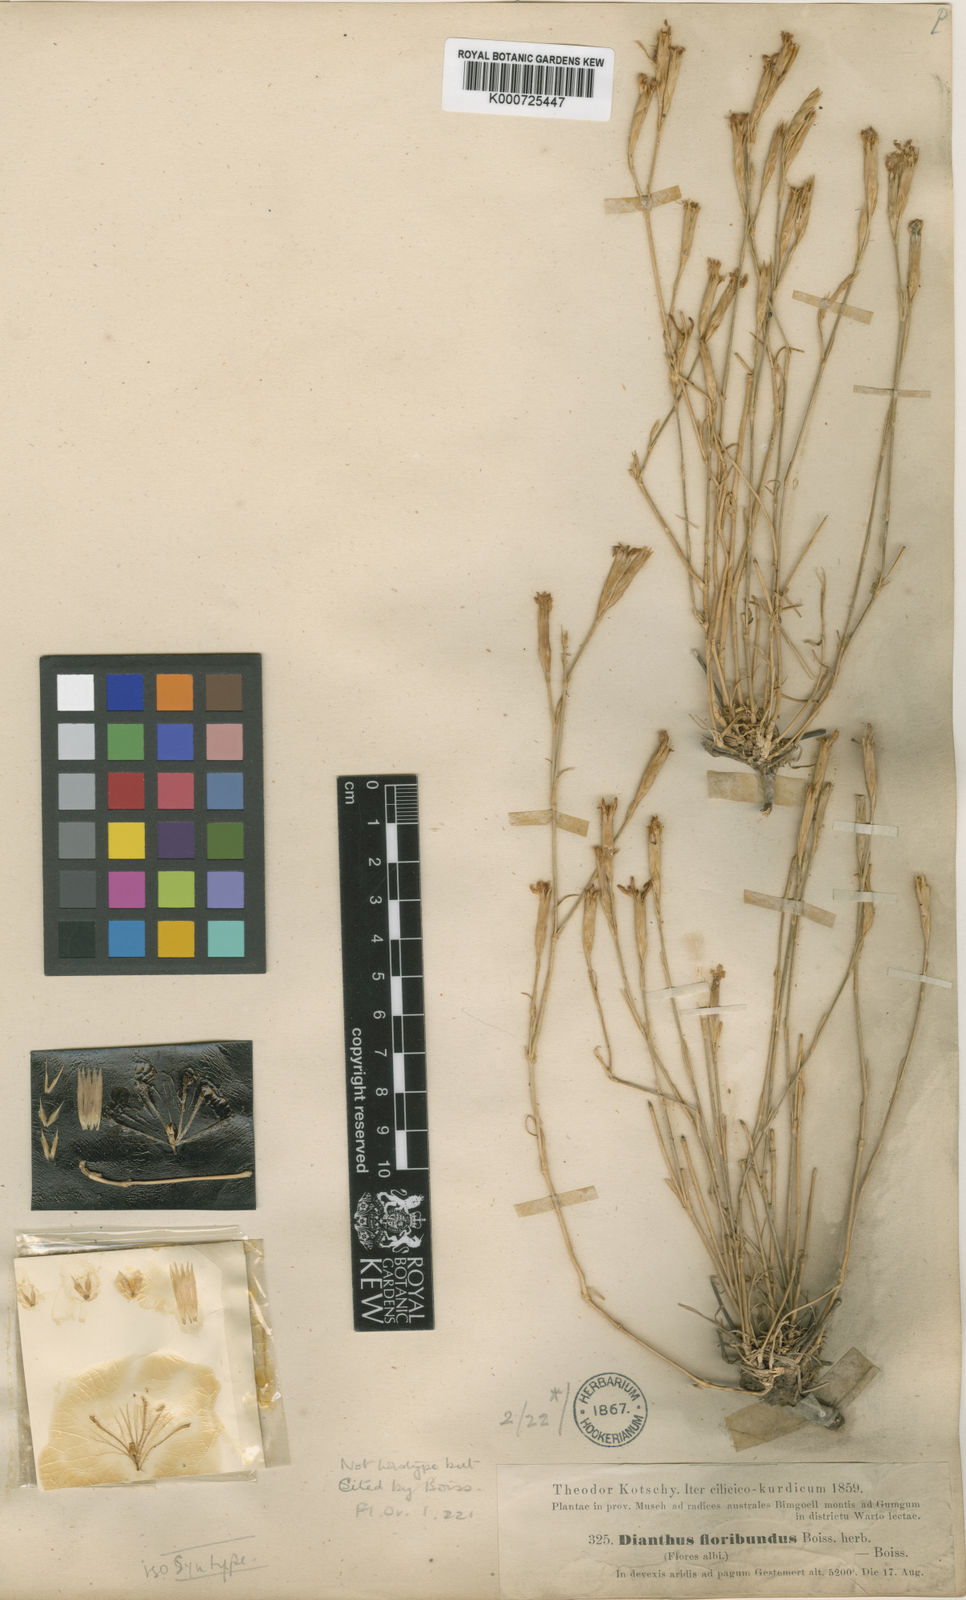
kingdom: Plantae
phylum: Tracheophyta
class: Magnoliopsida
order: Caryophyllales
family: Caryophyllaceae
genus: Dianthus
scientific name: Dianthus floribundus
